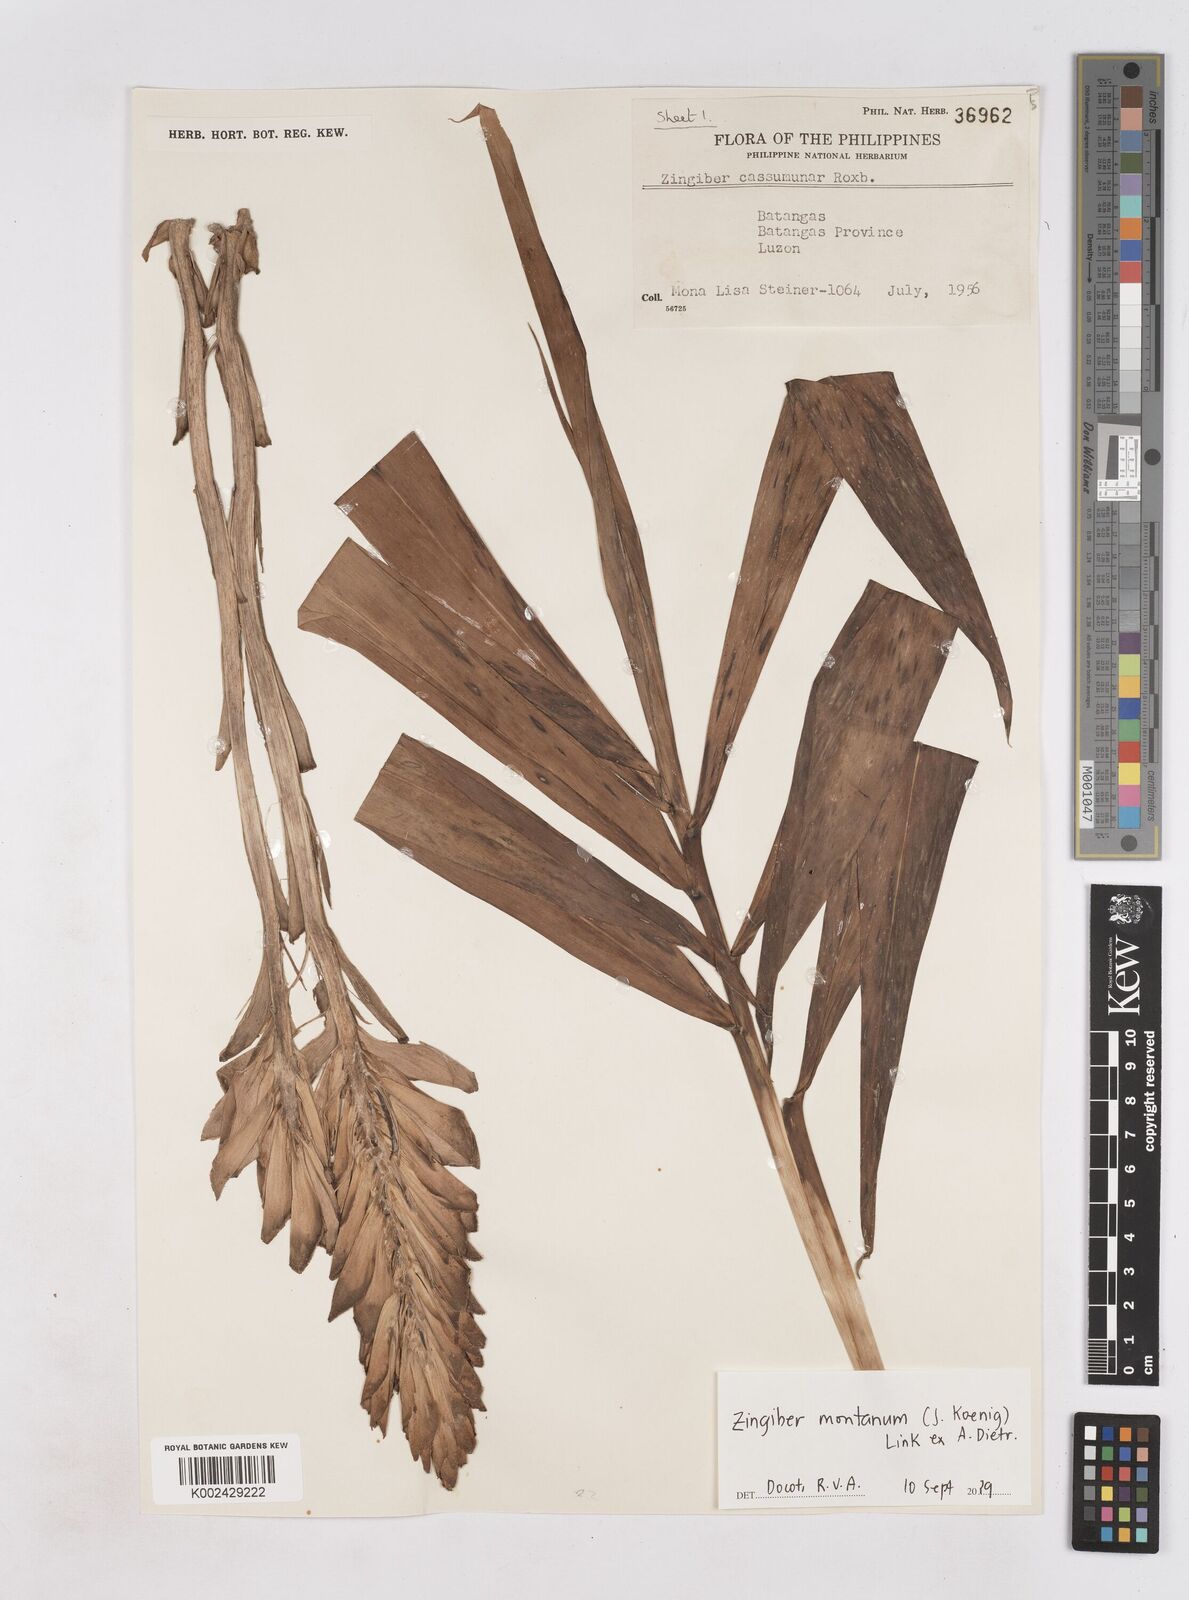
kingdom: Plantae
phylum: Tracheophyta
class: Liliopsida
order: Zingiberales
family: Zingiberaceae
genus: Zingiber
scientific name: Zingiber montanum
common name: Bengal ginger
